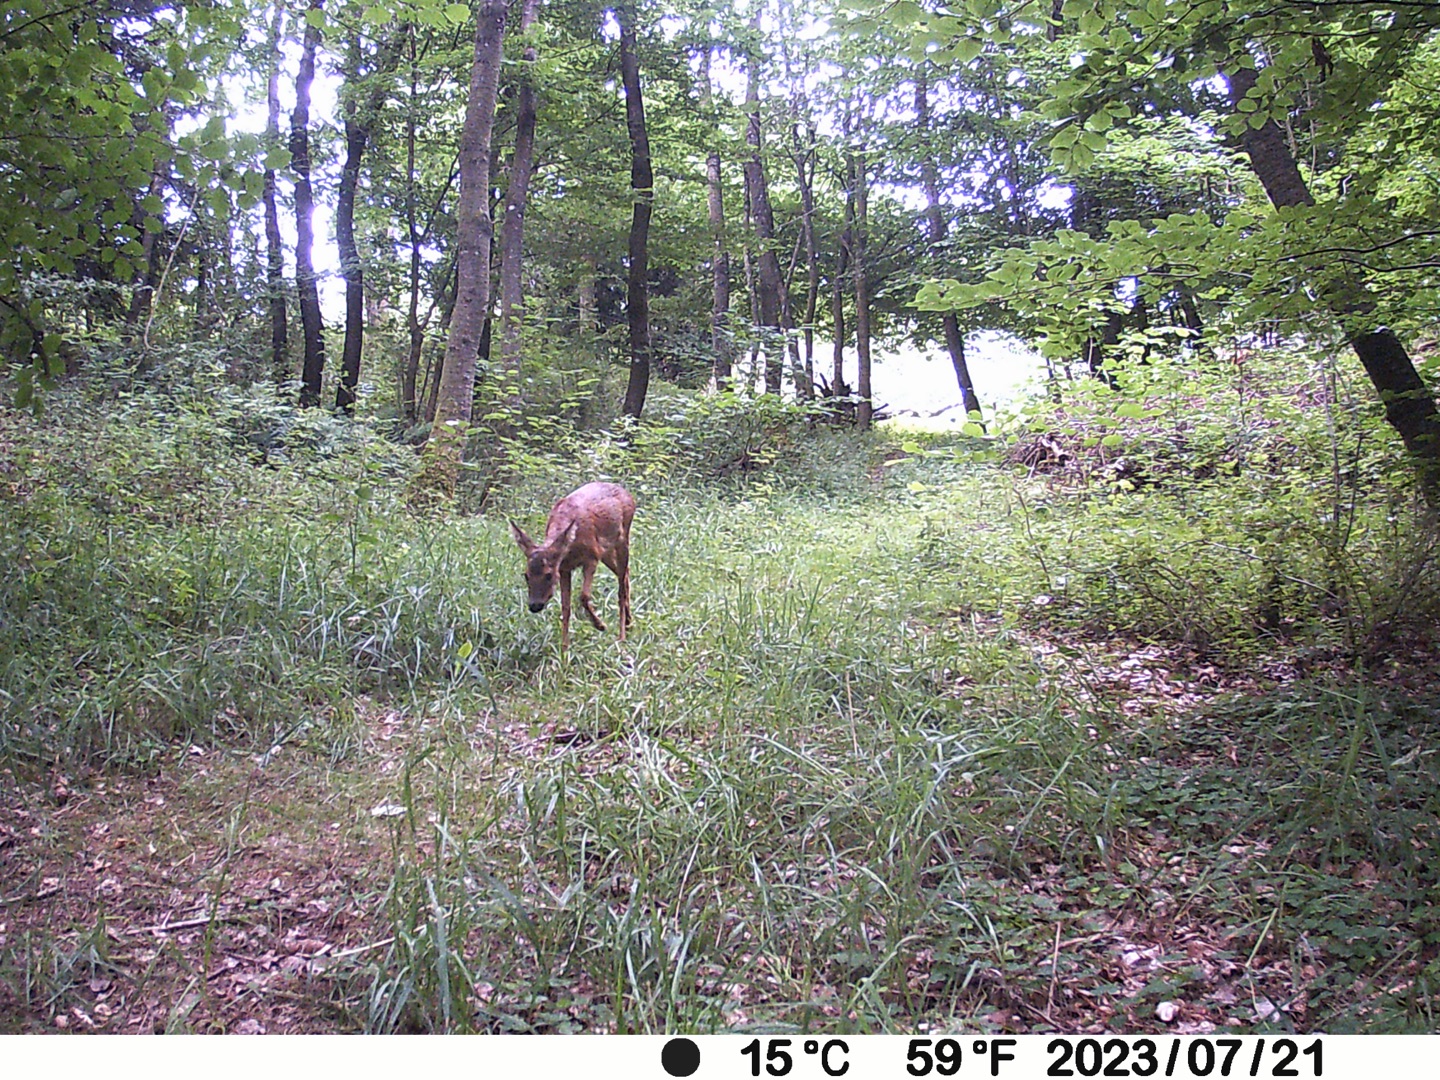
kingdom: Animalia
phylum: Chordata
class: Mammalia
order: Artiodactyla
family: Cervidae
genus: Capreolus
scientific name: Capreolus capreolus
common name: Rådyr
